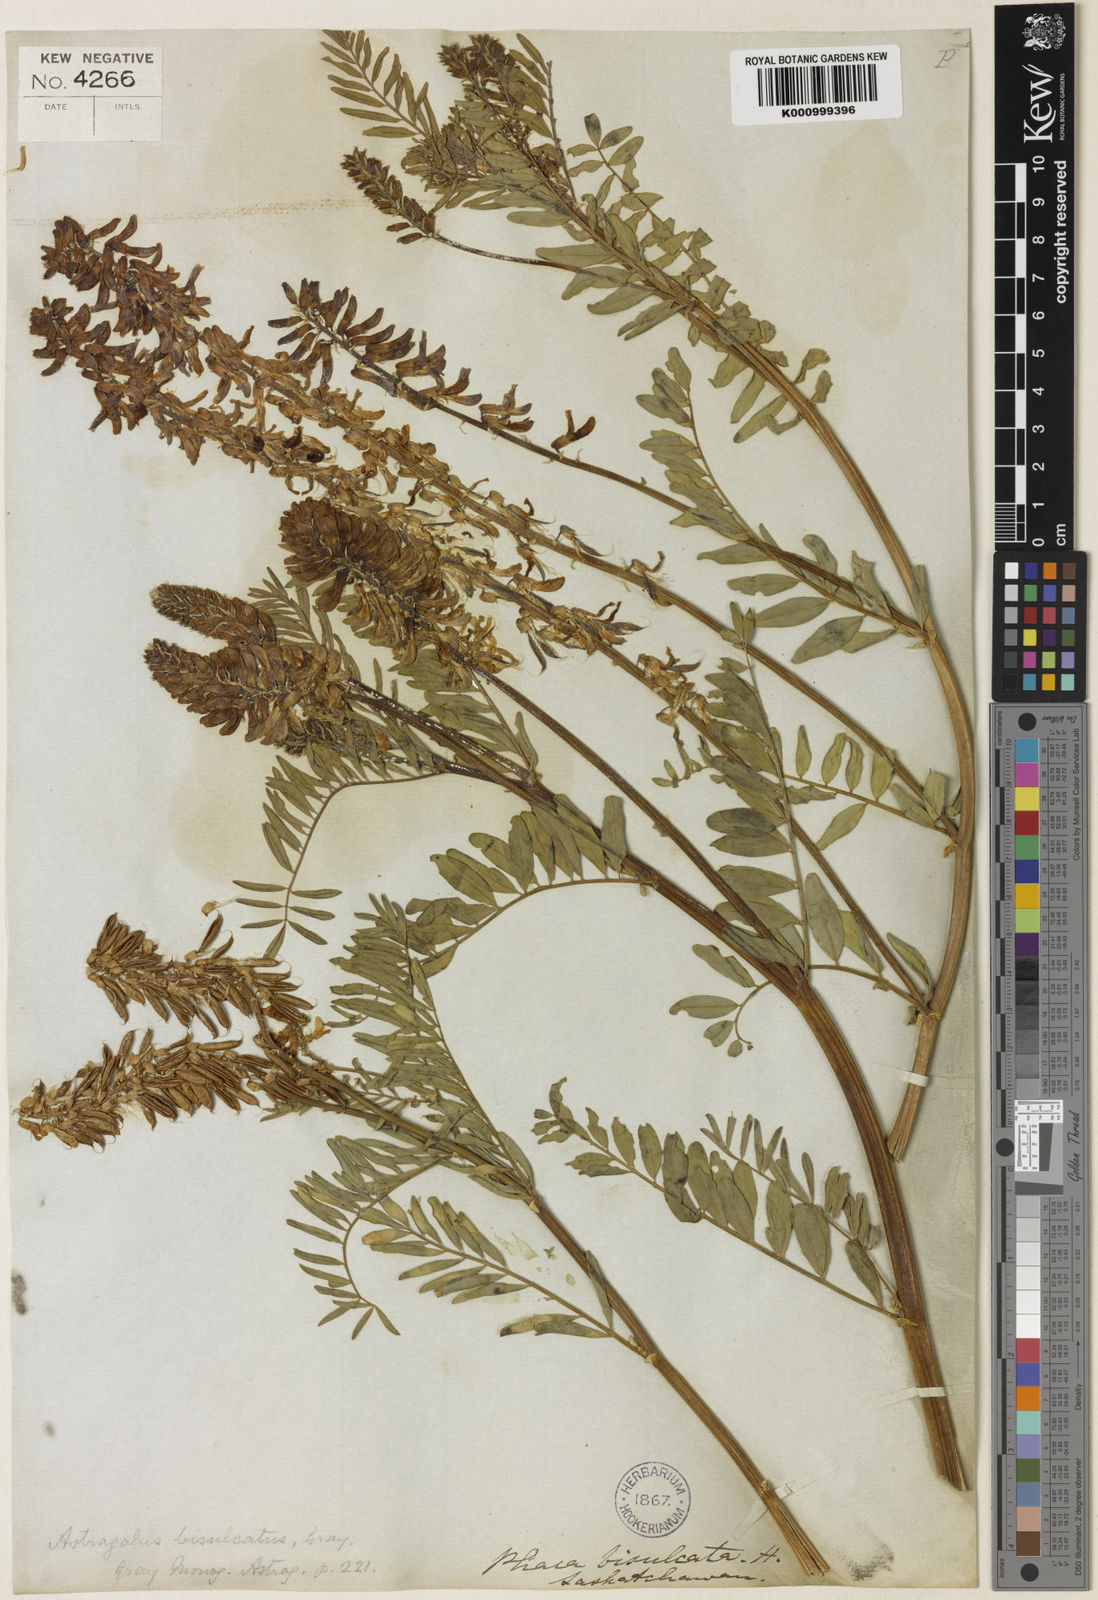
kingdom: Plantae
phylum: Tracheophyta
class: Magnoliopsida
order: Fabales
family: Fabaceae
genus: Astragalus
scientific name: Astragalus bisulcatus
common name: Two-groove milk-vetch
